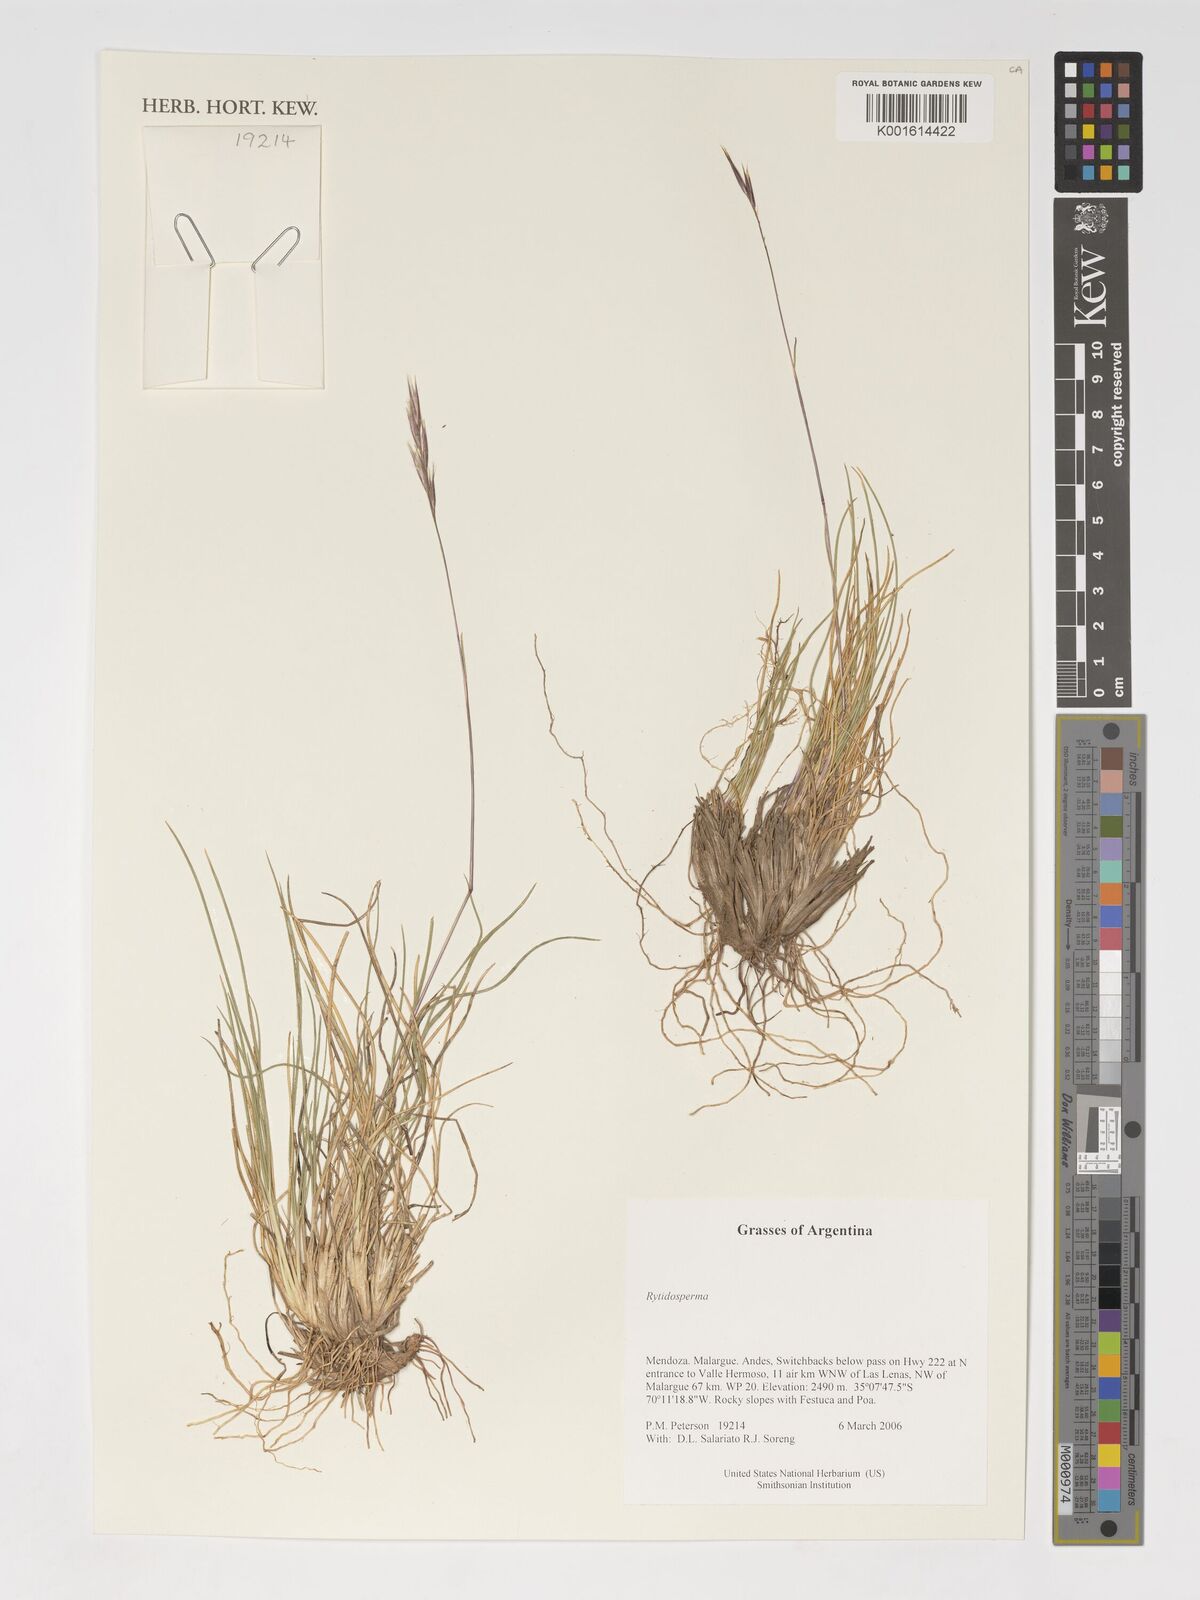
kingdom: Plantae
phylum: Tracheophyta
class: Liliopsida
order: Poales
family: Poaceae
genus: Rytidosperma
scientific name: Rytidosperma
